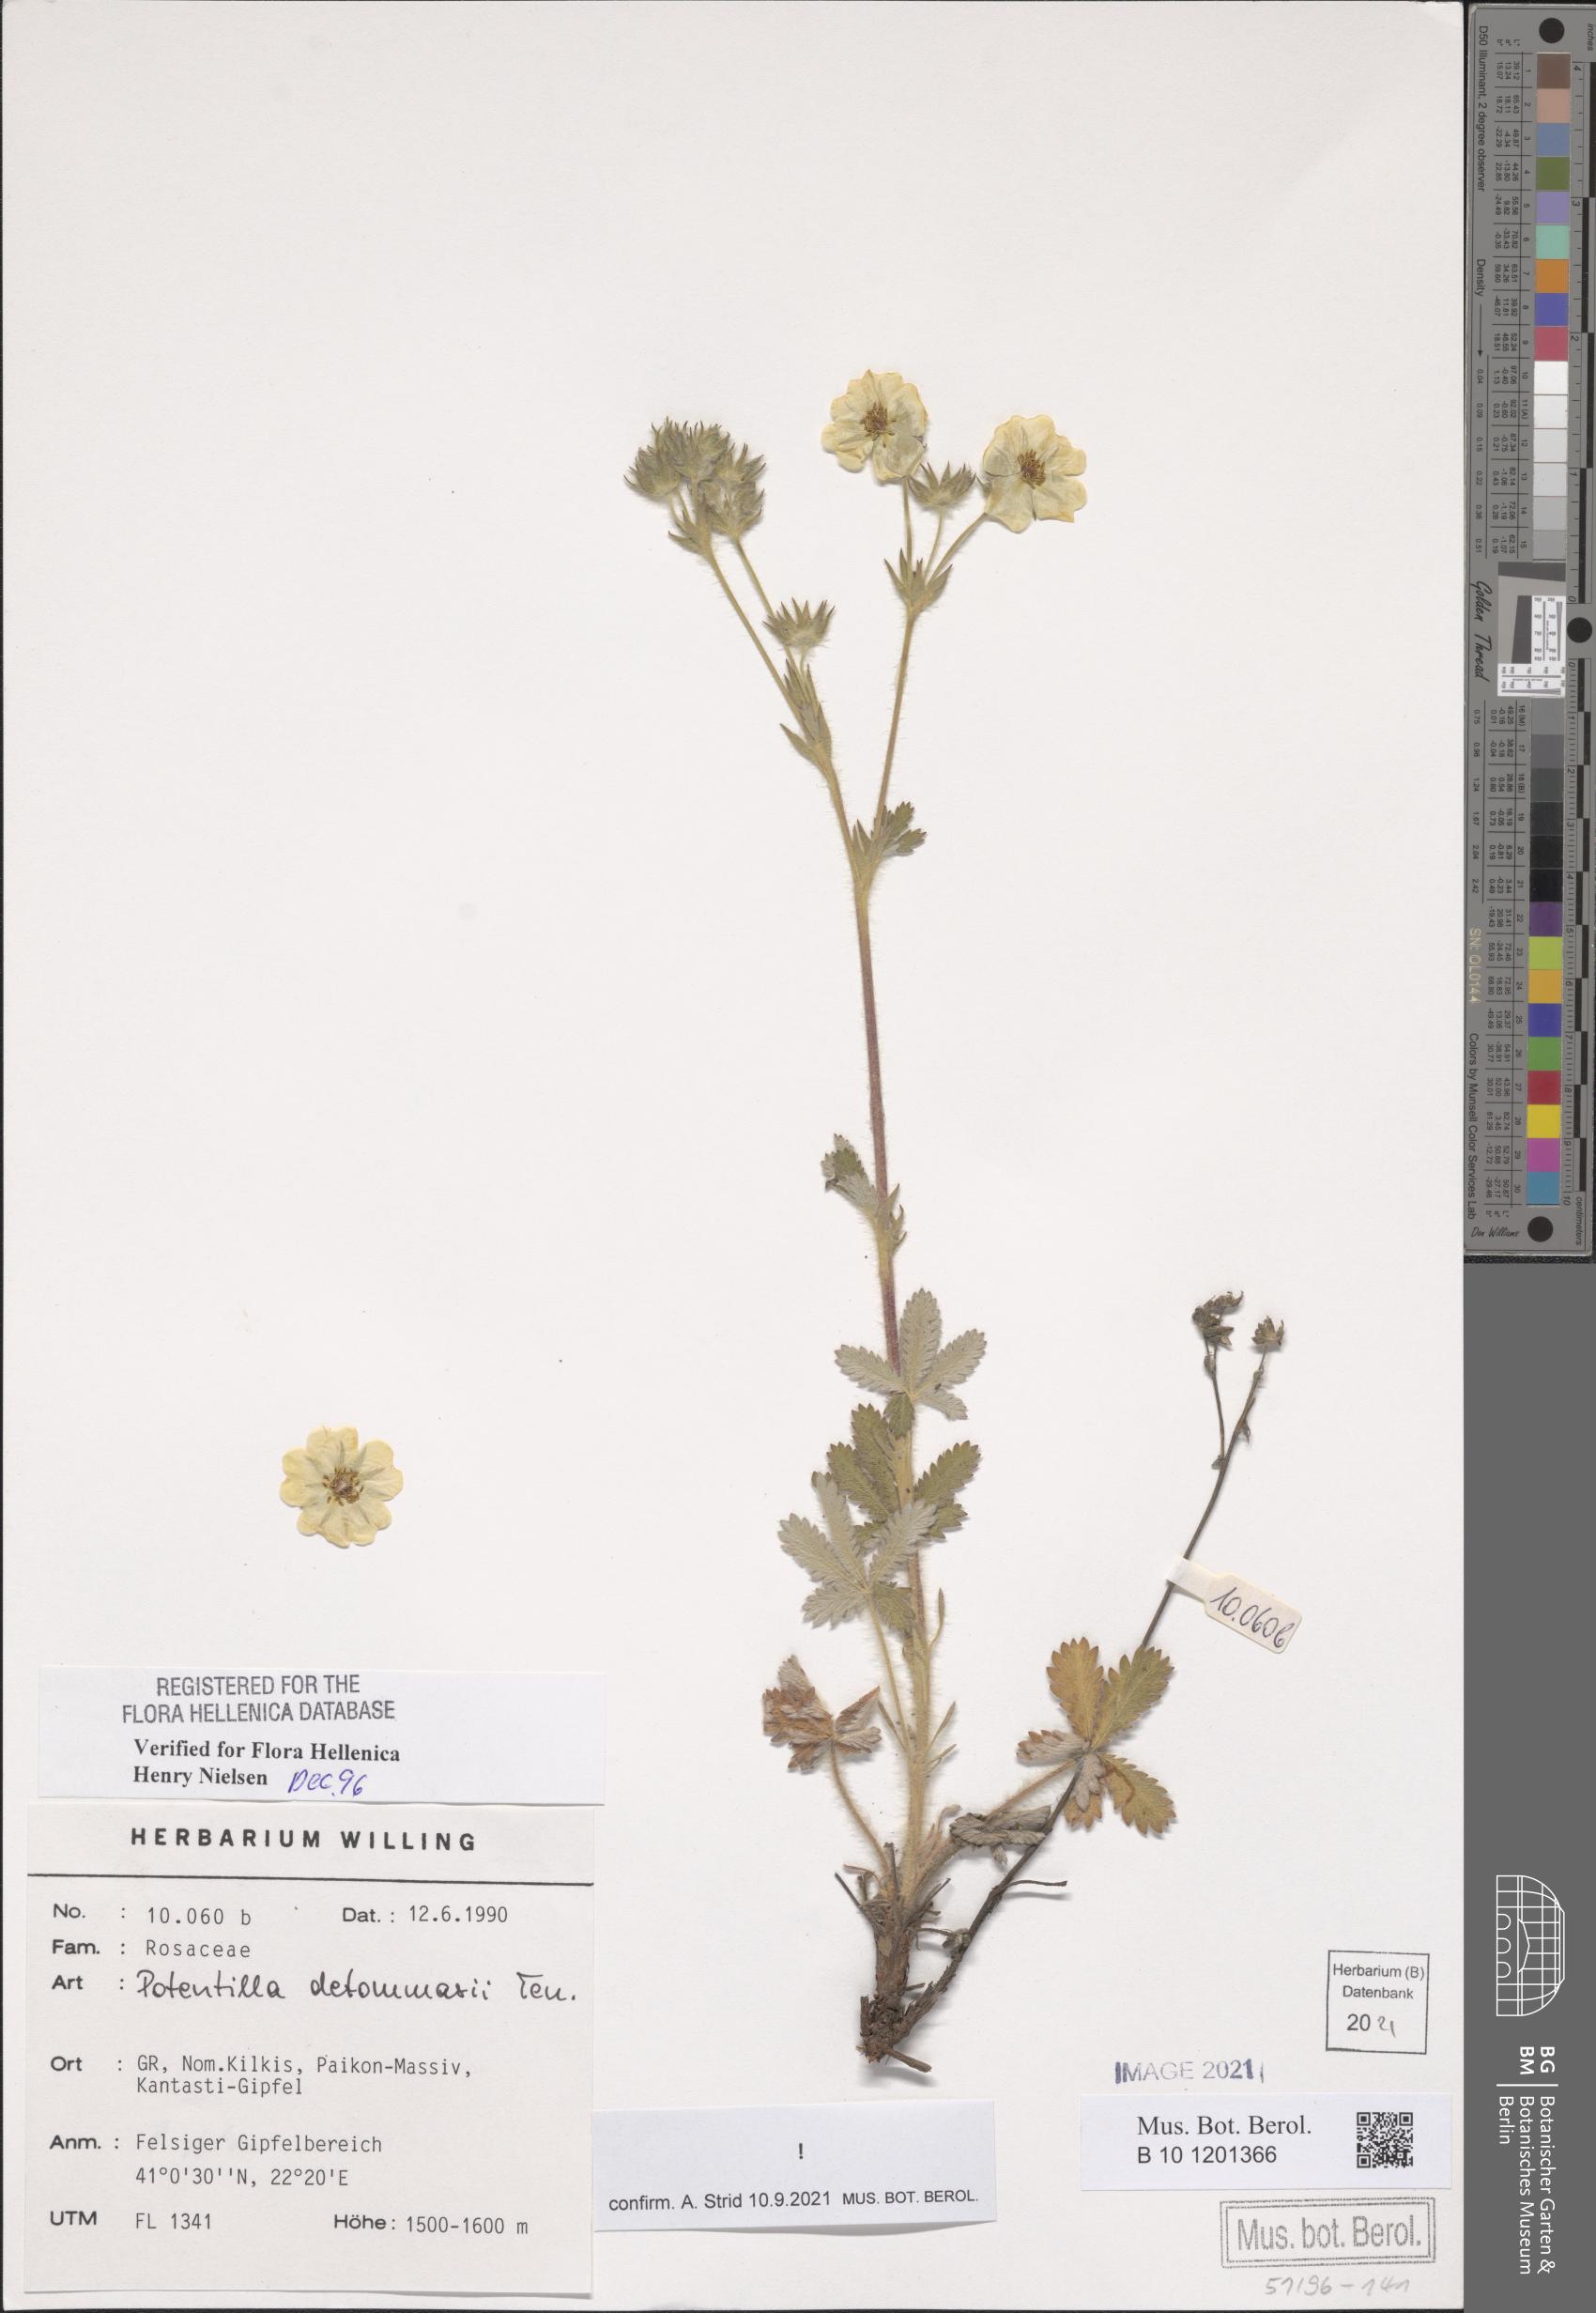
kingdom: Plantae
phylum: Tracheophyta
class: Magnoliopsida
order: Rosales
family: Rosaceae
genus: Potentilla
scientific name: Potentilla detommasii
